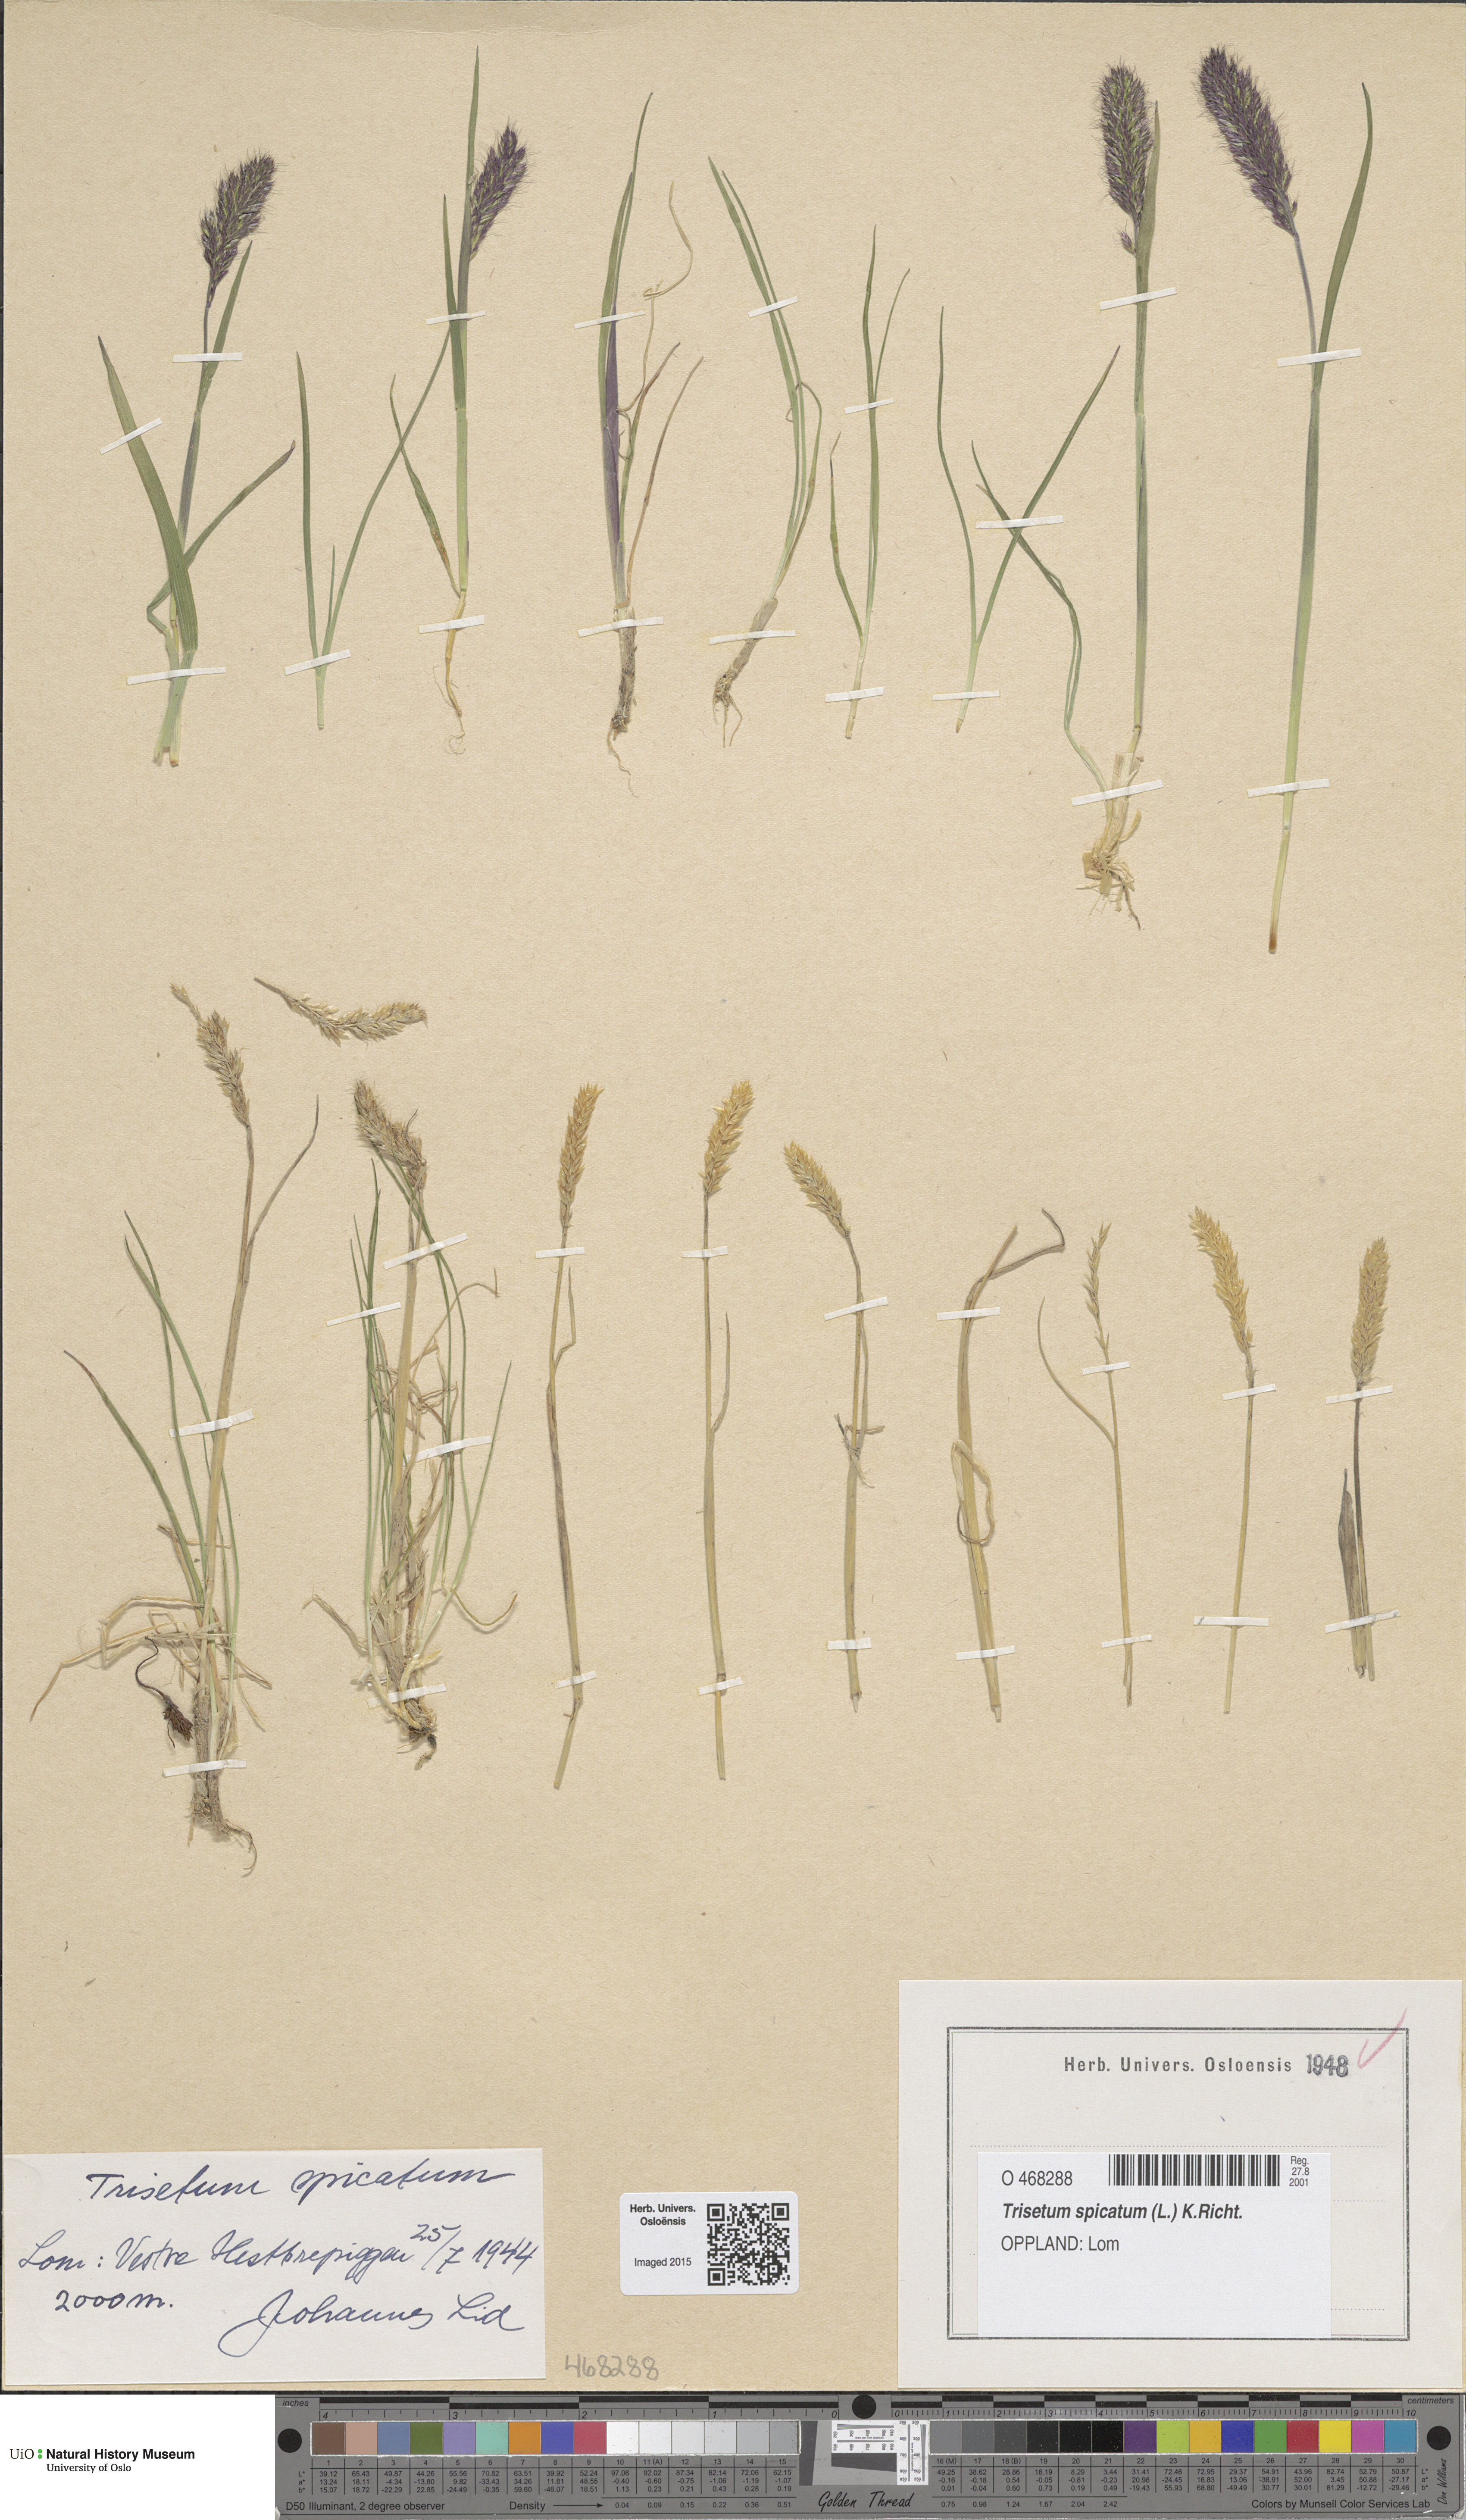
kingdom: Plantae
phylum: Tracheophyta
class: Liliopsida
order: Poales
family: Poaceae
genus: Koeleria
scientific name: Koeleria spicata
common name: Mountain trisetum
